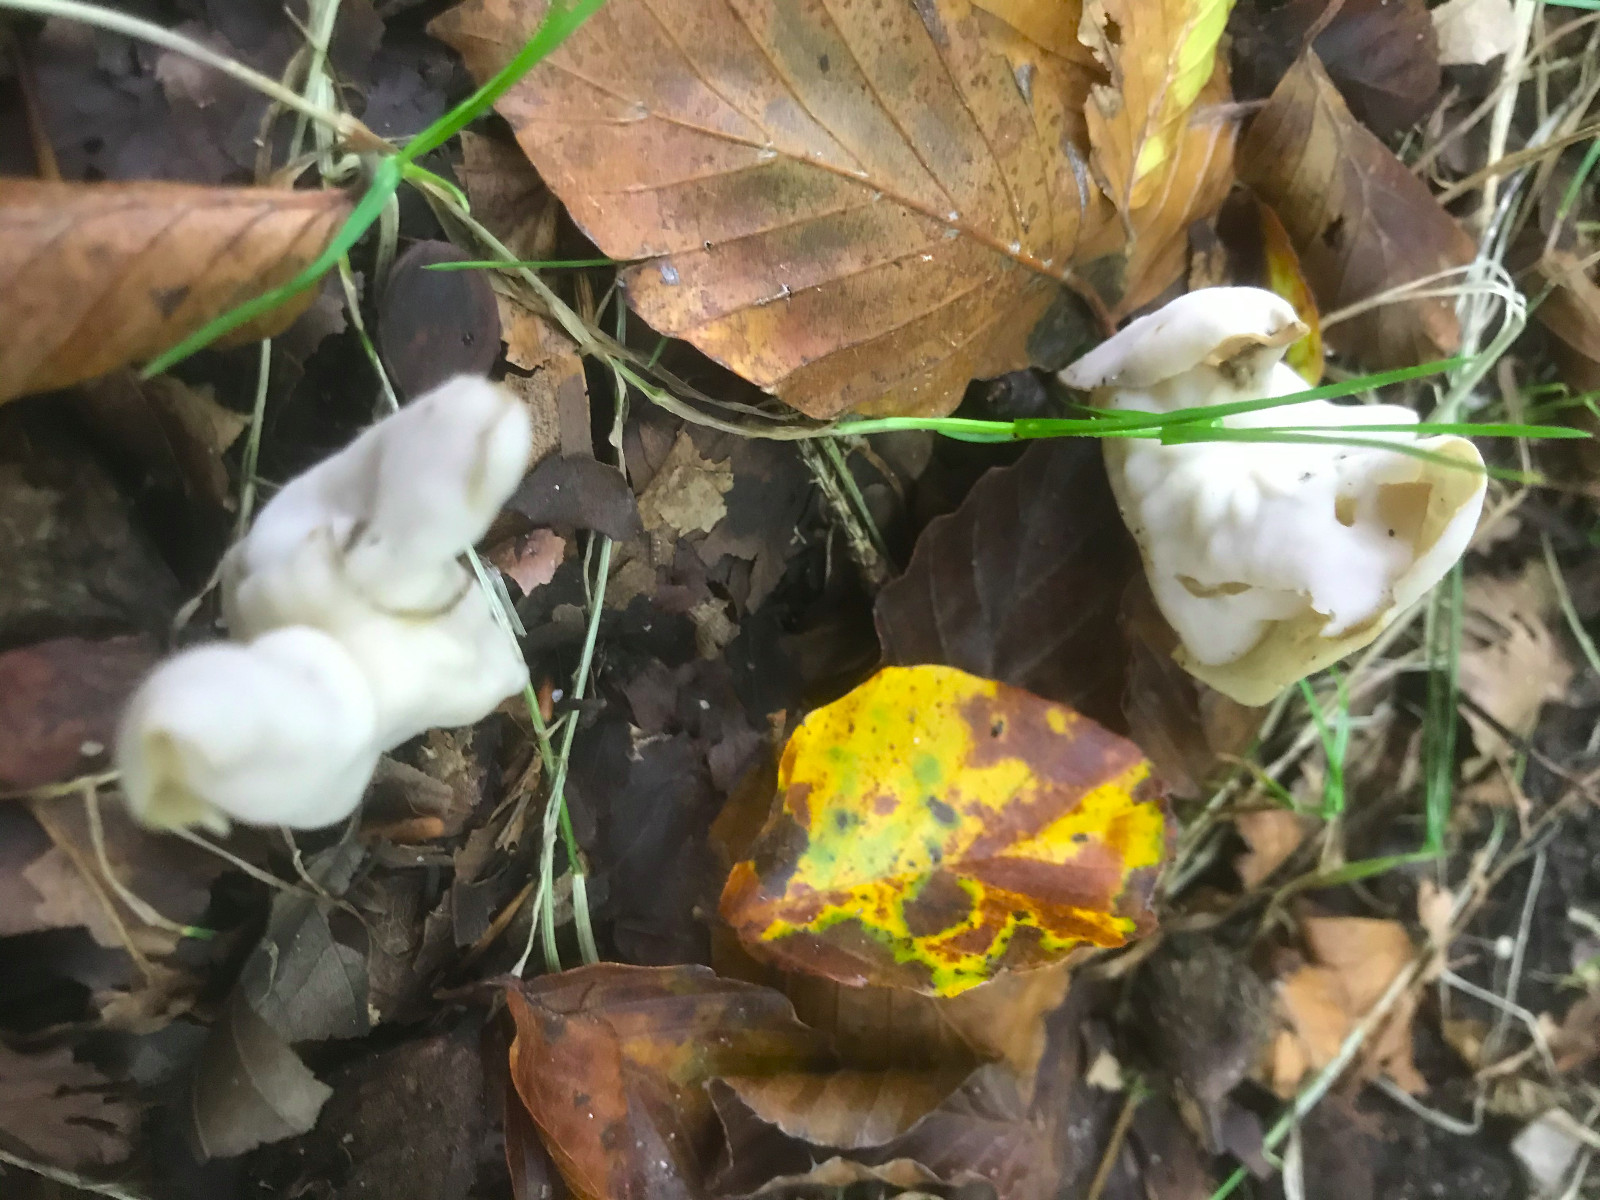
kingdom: Fungi
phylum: Ascomycota
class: Pezizomycetes
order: Pezizales
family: Helvellaceae
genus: Helvella
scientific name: Helvella crispa
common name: kruset foldhat
